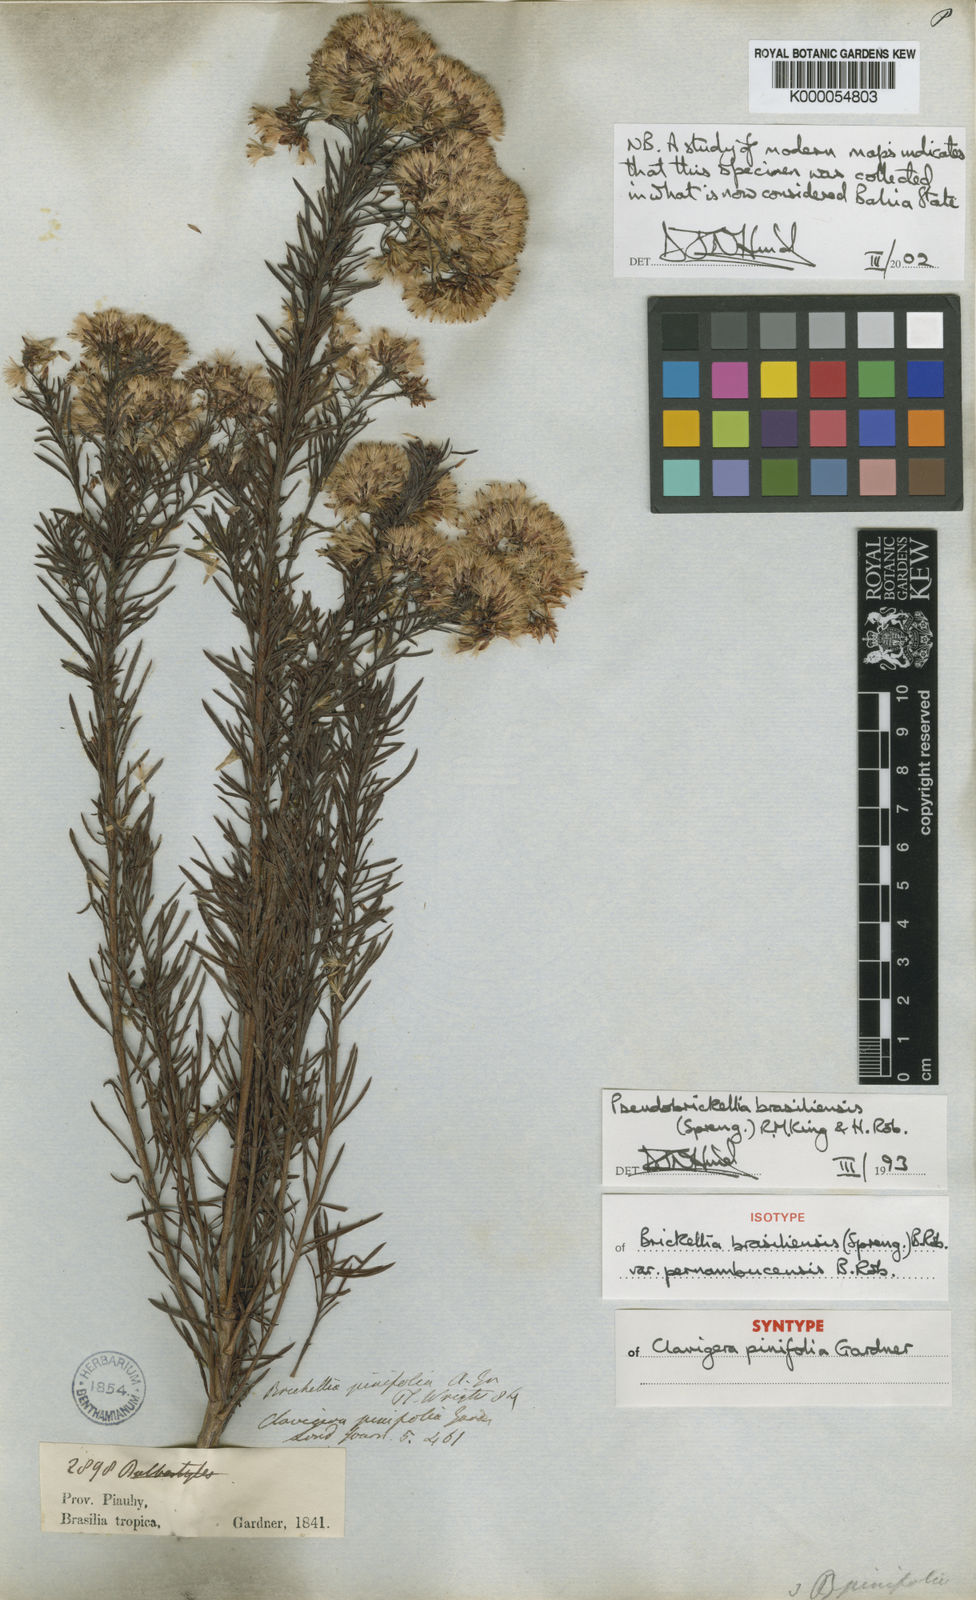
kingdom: Plantae
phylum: Tracheophyta
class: Magnoliopsida
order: Asterales
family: Asteraceae
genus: Pseudobrickellia
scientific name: Pseudobrickellia brasiliensis
